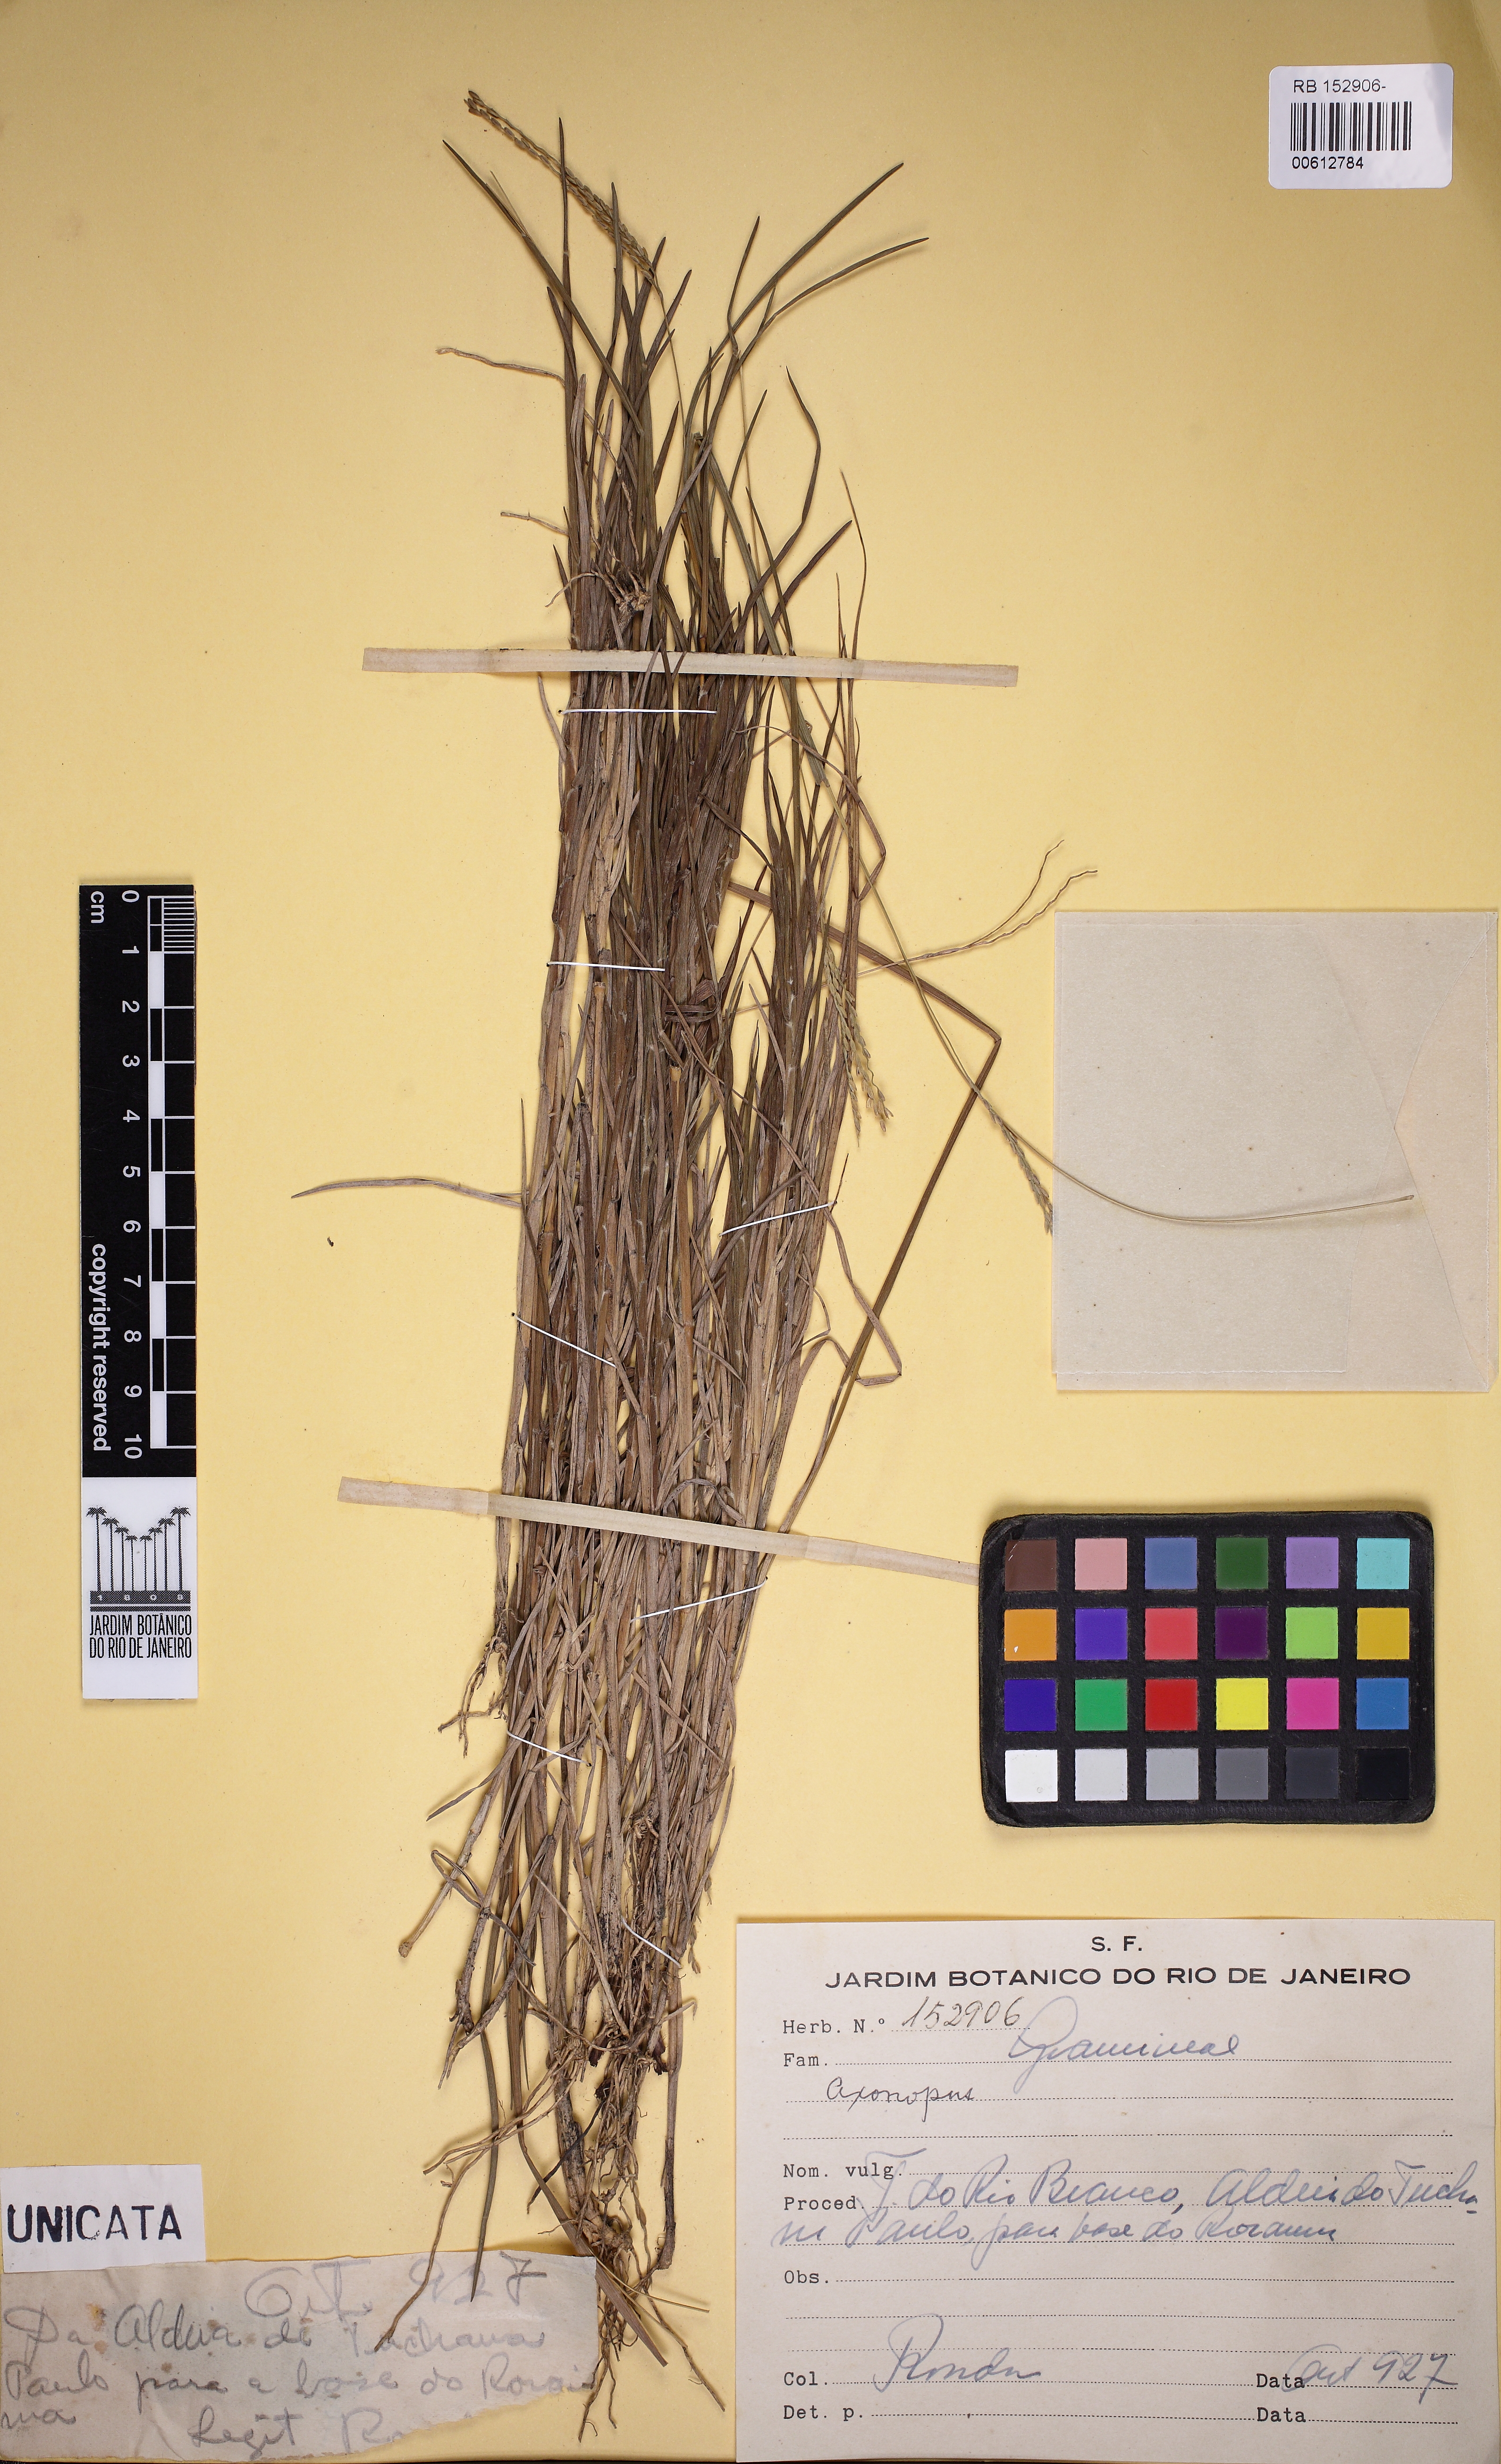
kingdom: Plantae
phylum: Tracheophyta
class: Liliopsida
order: Poales
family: Poaceae
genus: Axonopus
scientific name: Axonopus
